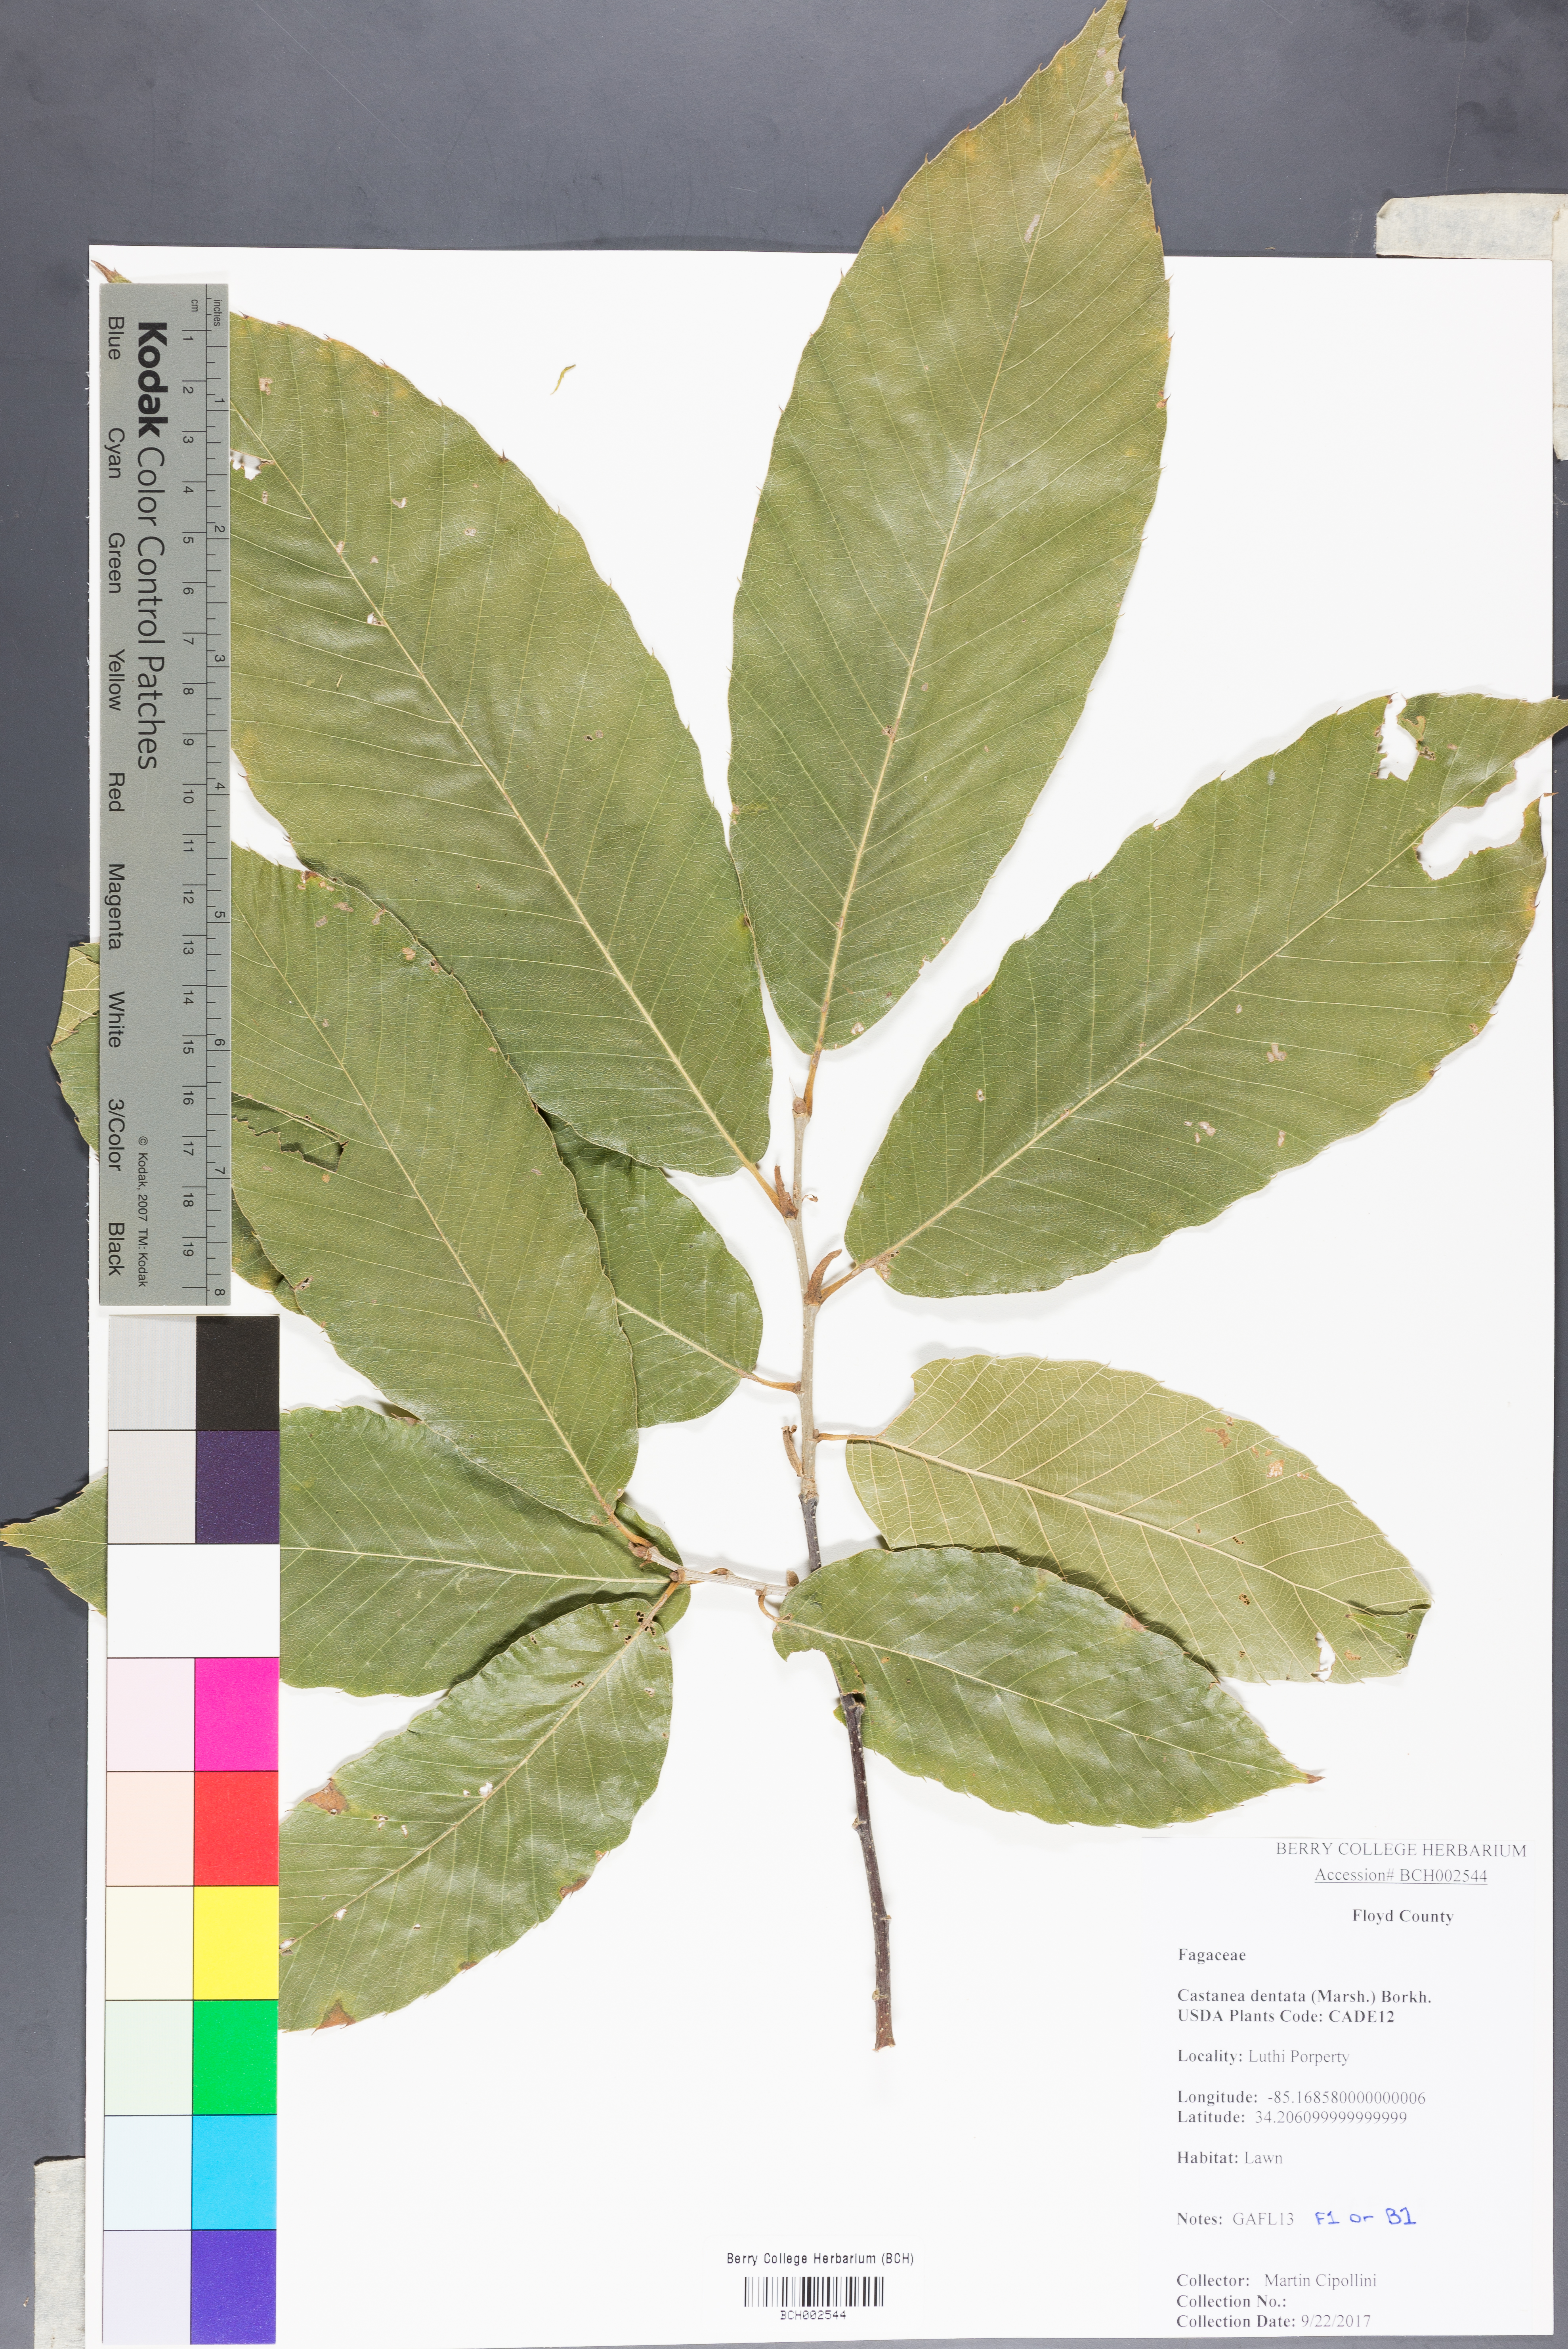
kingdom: Plantae
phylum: Tracheophyta
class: Magnoliopsida
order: Fagales
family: Fagaceae
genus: Castanea
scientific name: Castanea dentata
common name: American chestnut
